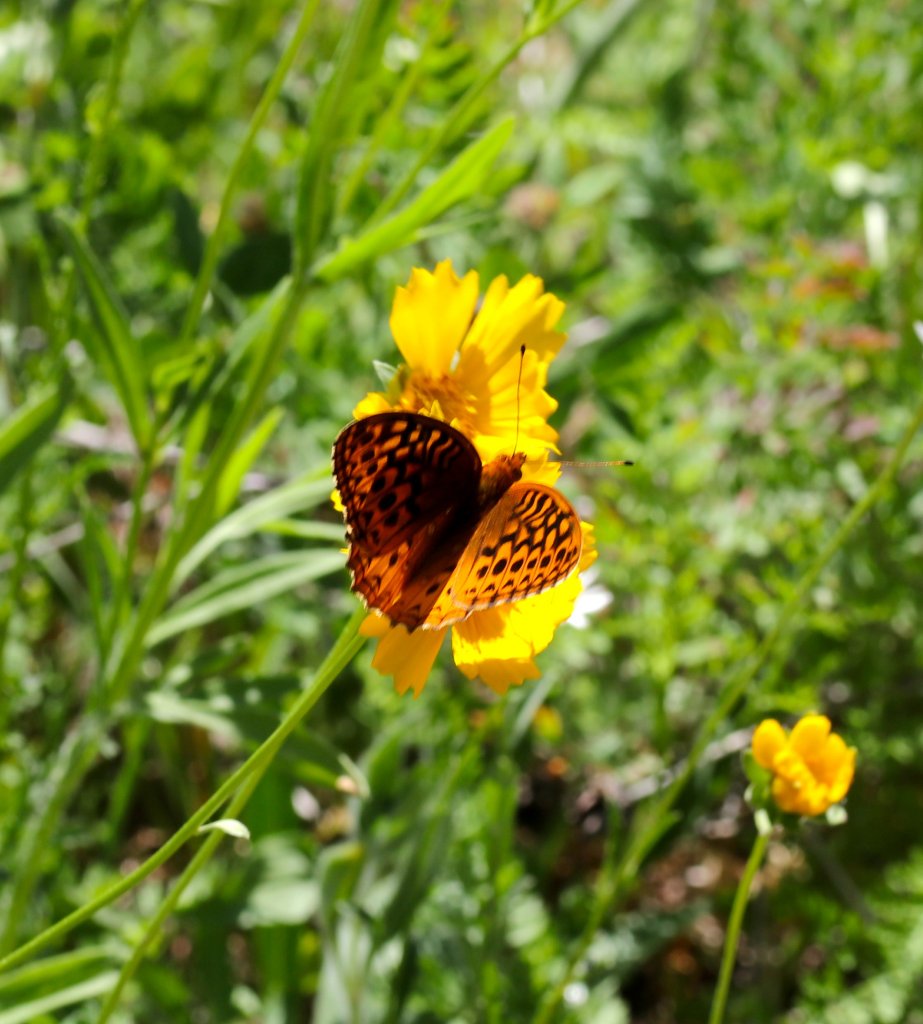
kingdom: Animalia
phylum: Arthropoda
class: Insecta
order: Lepidoptera
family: Nymphalidae
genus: Speyeria
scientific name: Speyeria cybele
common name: Great Spangled Fritillary
